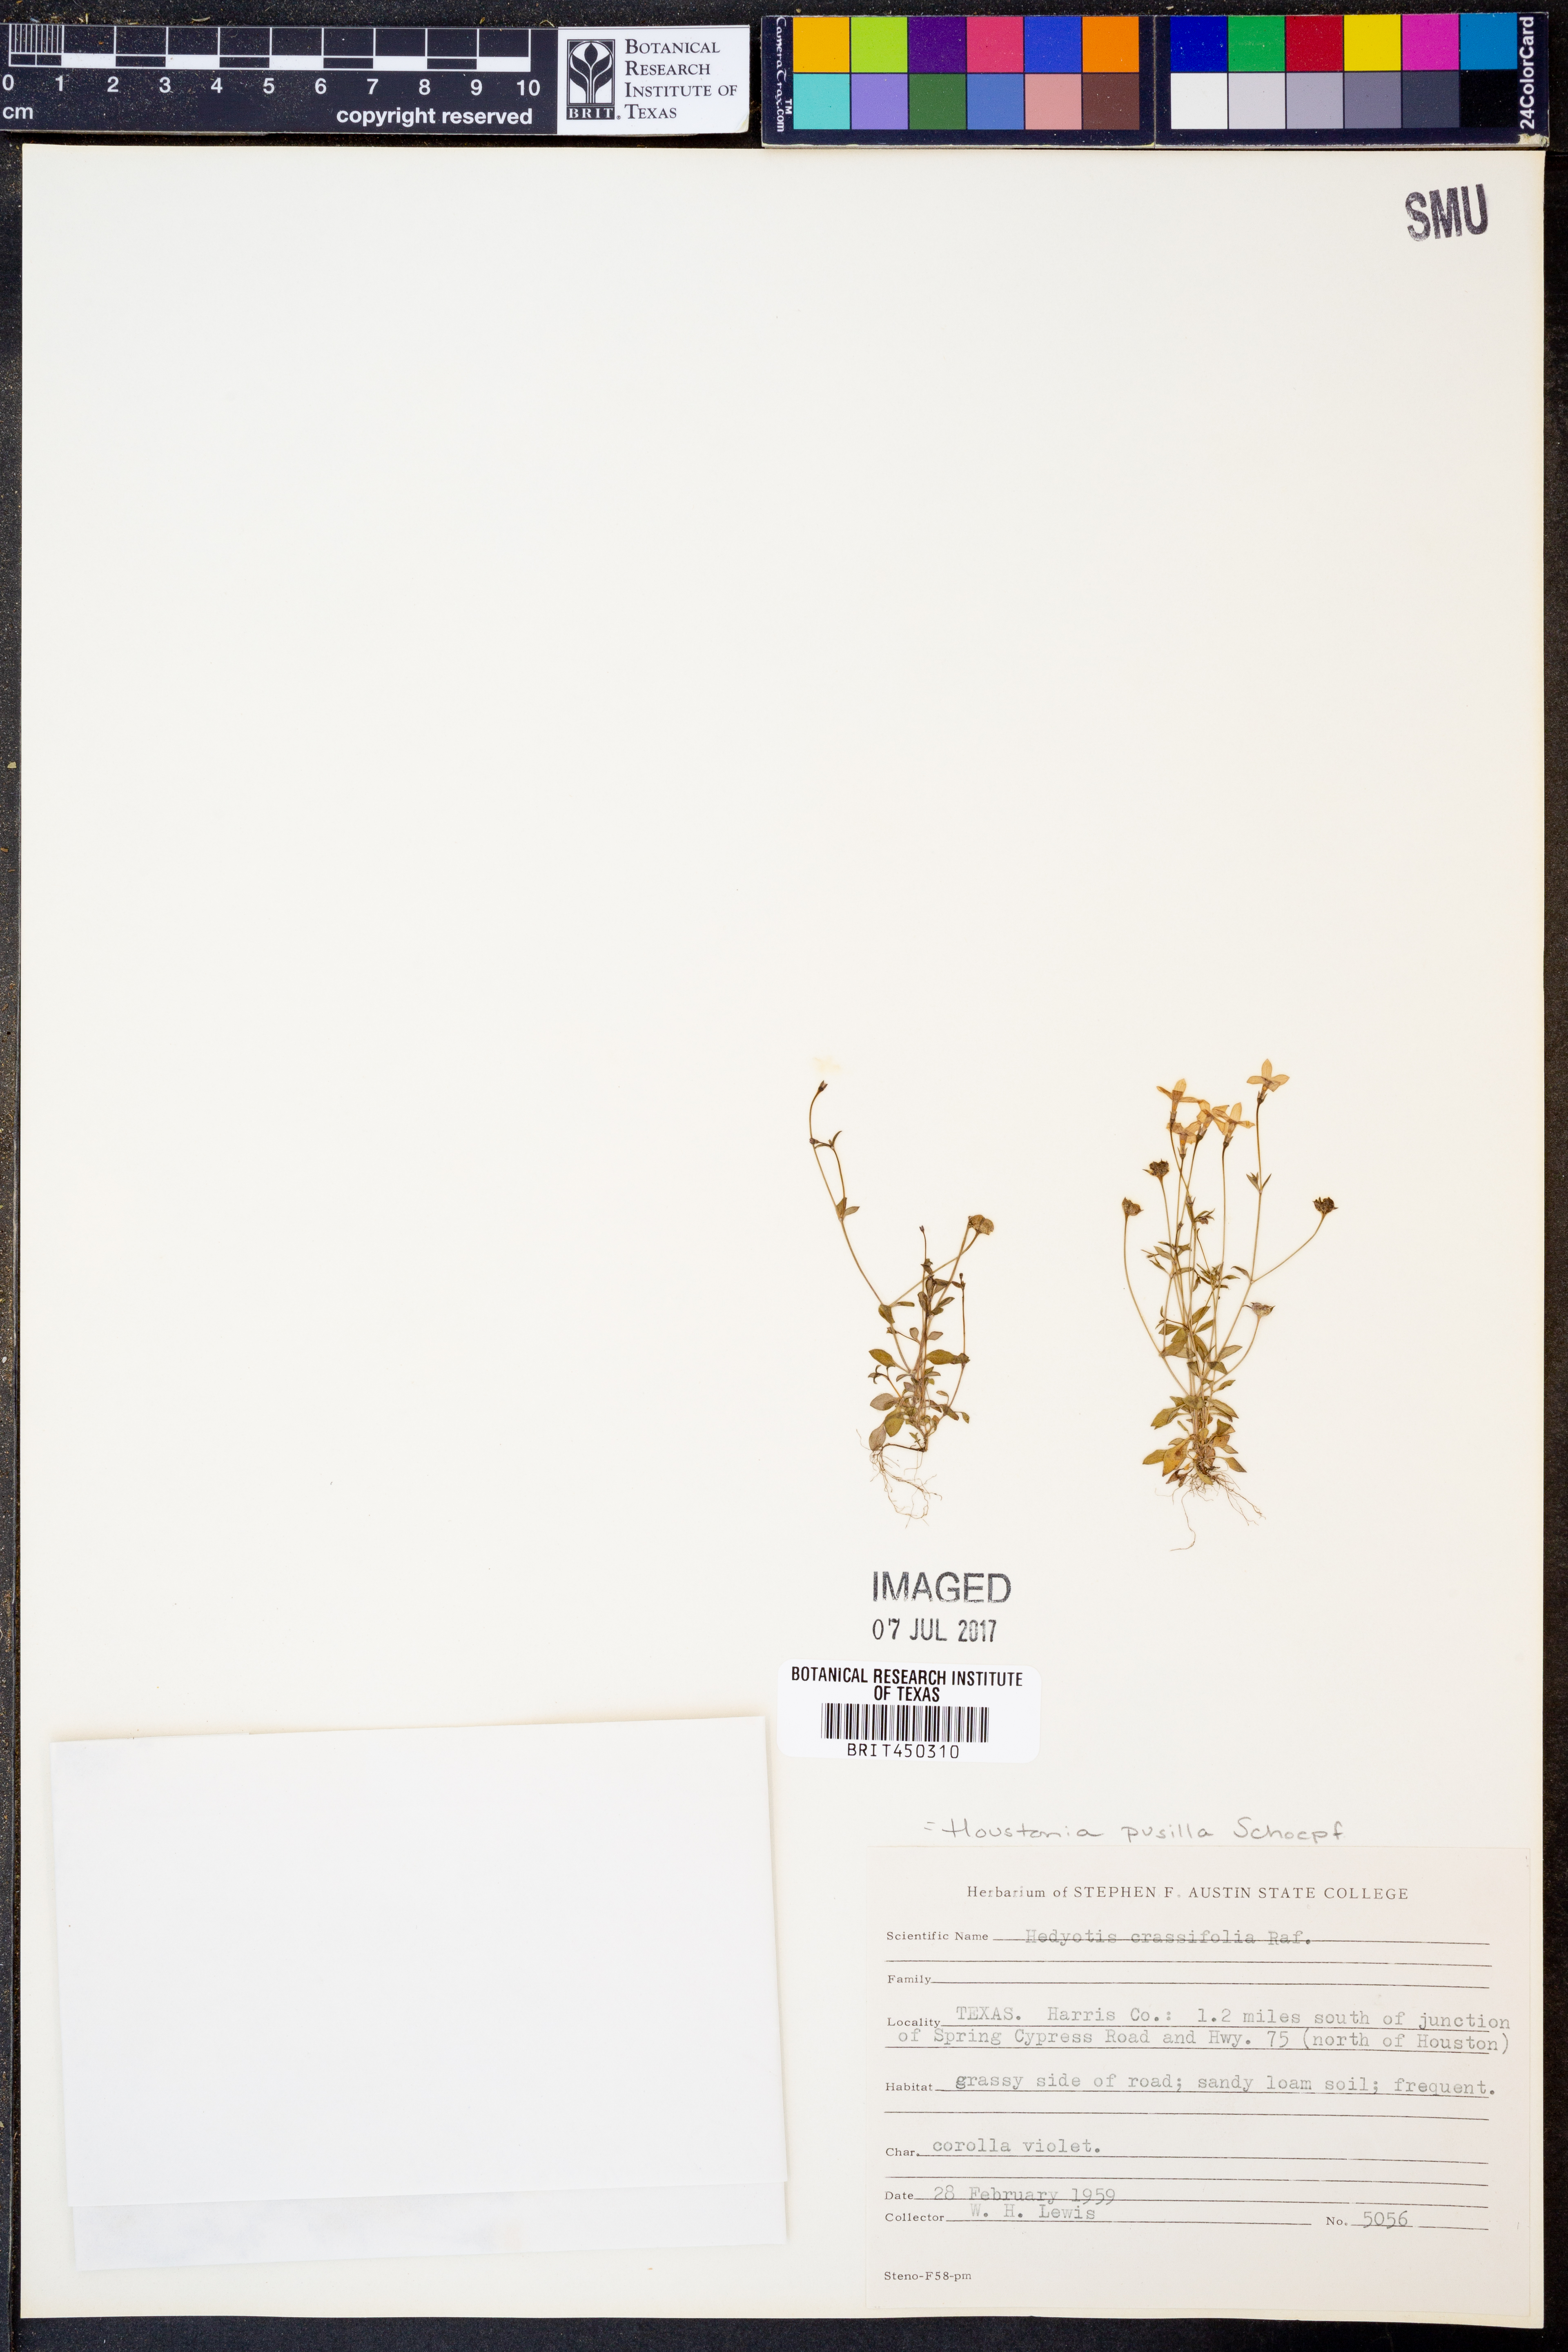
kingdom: Plantae
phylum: Tracheophyta
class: Magnoliopsida
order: Gentianales
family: Rubiaceae
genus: Houstonia
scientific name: Houstonia pusilla
